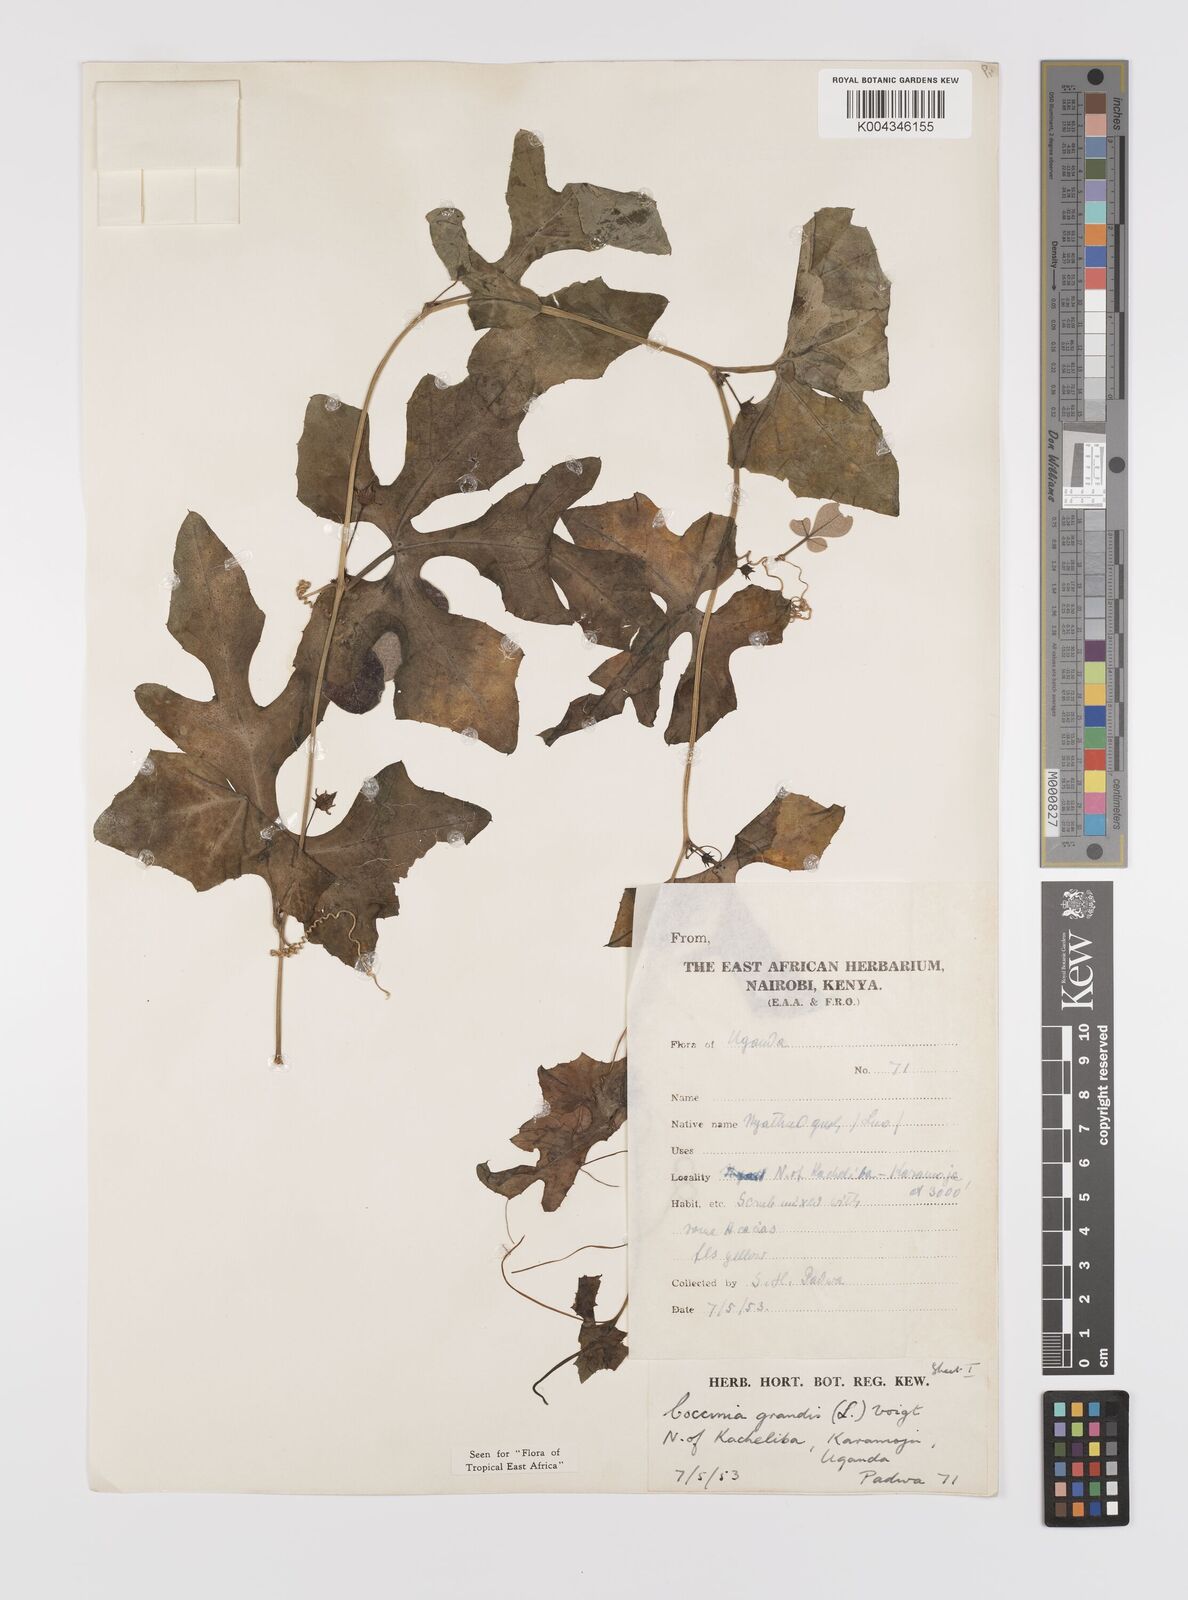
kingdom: Plantae
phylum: Tracheophyta
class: Magnoliopsida
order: Cucurbitales
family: Cucurbitaceae
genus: Coccinia
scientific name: Coccinia grandis
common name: Ivy gourd
